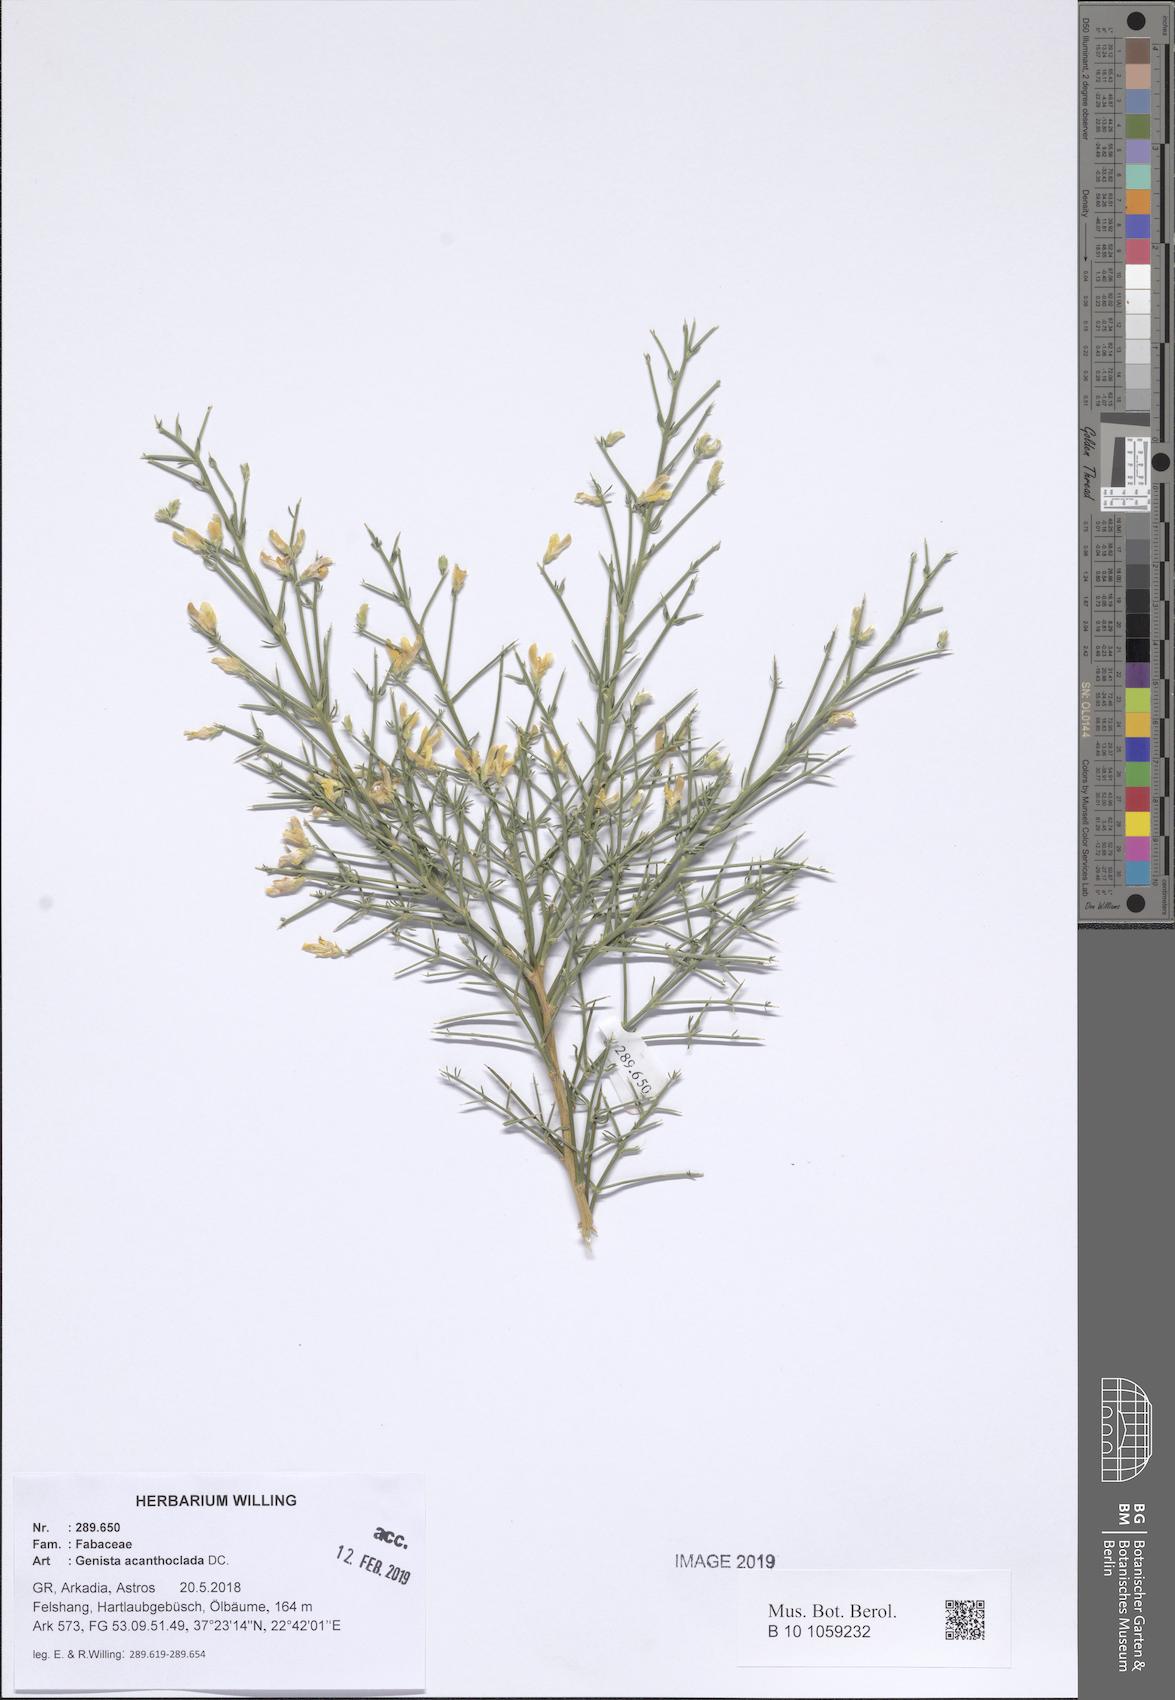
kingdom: Plantae
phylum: Tracheophyta
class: Magnoliopsida
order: Fabales
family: Fabaceae
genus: Genista
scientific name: Genista acanthoclada
